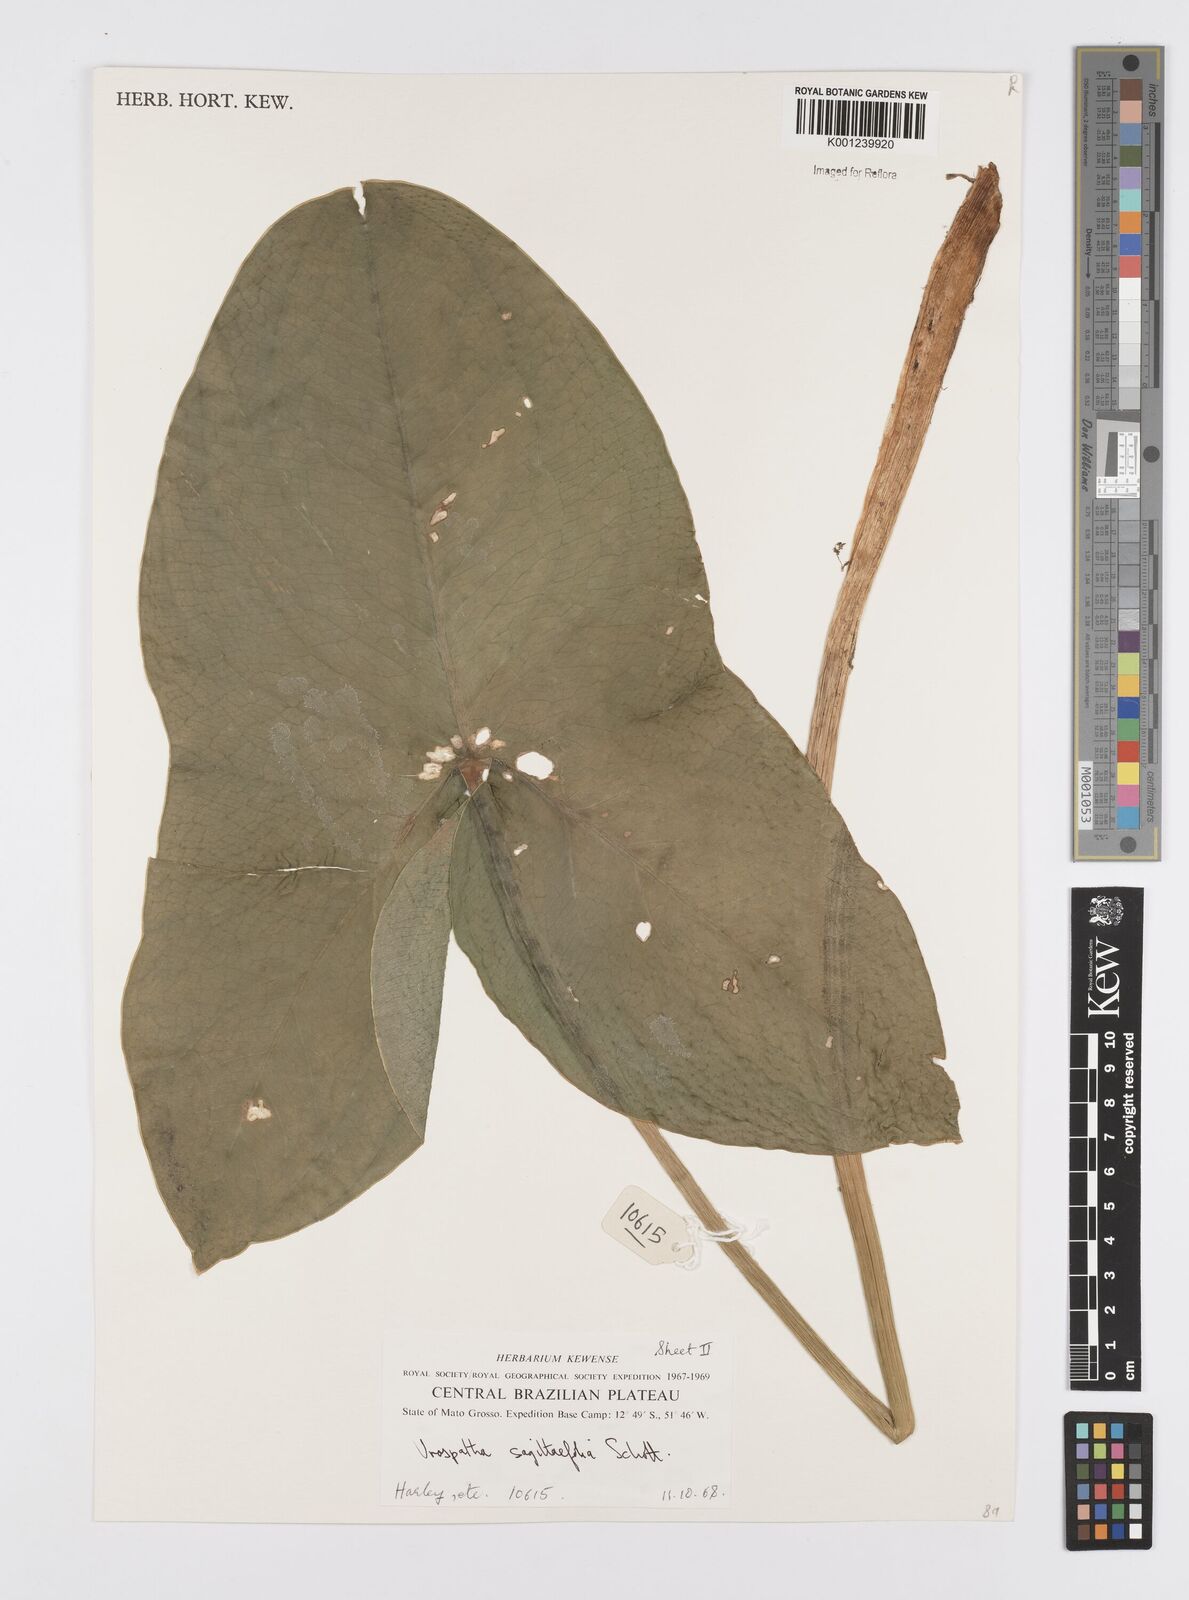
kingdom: Plantae
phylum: Tracheophyta
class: Liliopsida
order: Alismatales
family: Araceae
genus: Urospatha
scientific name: Urospatha sagittifolia
